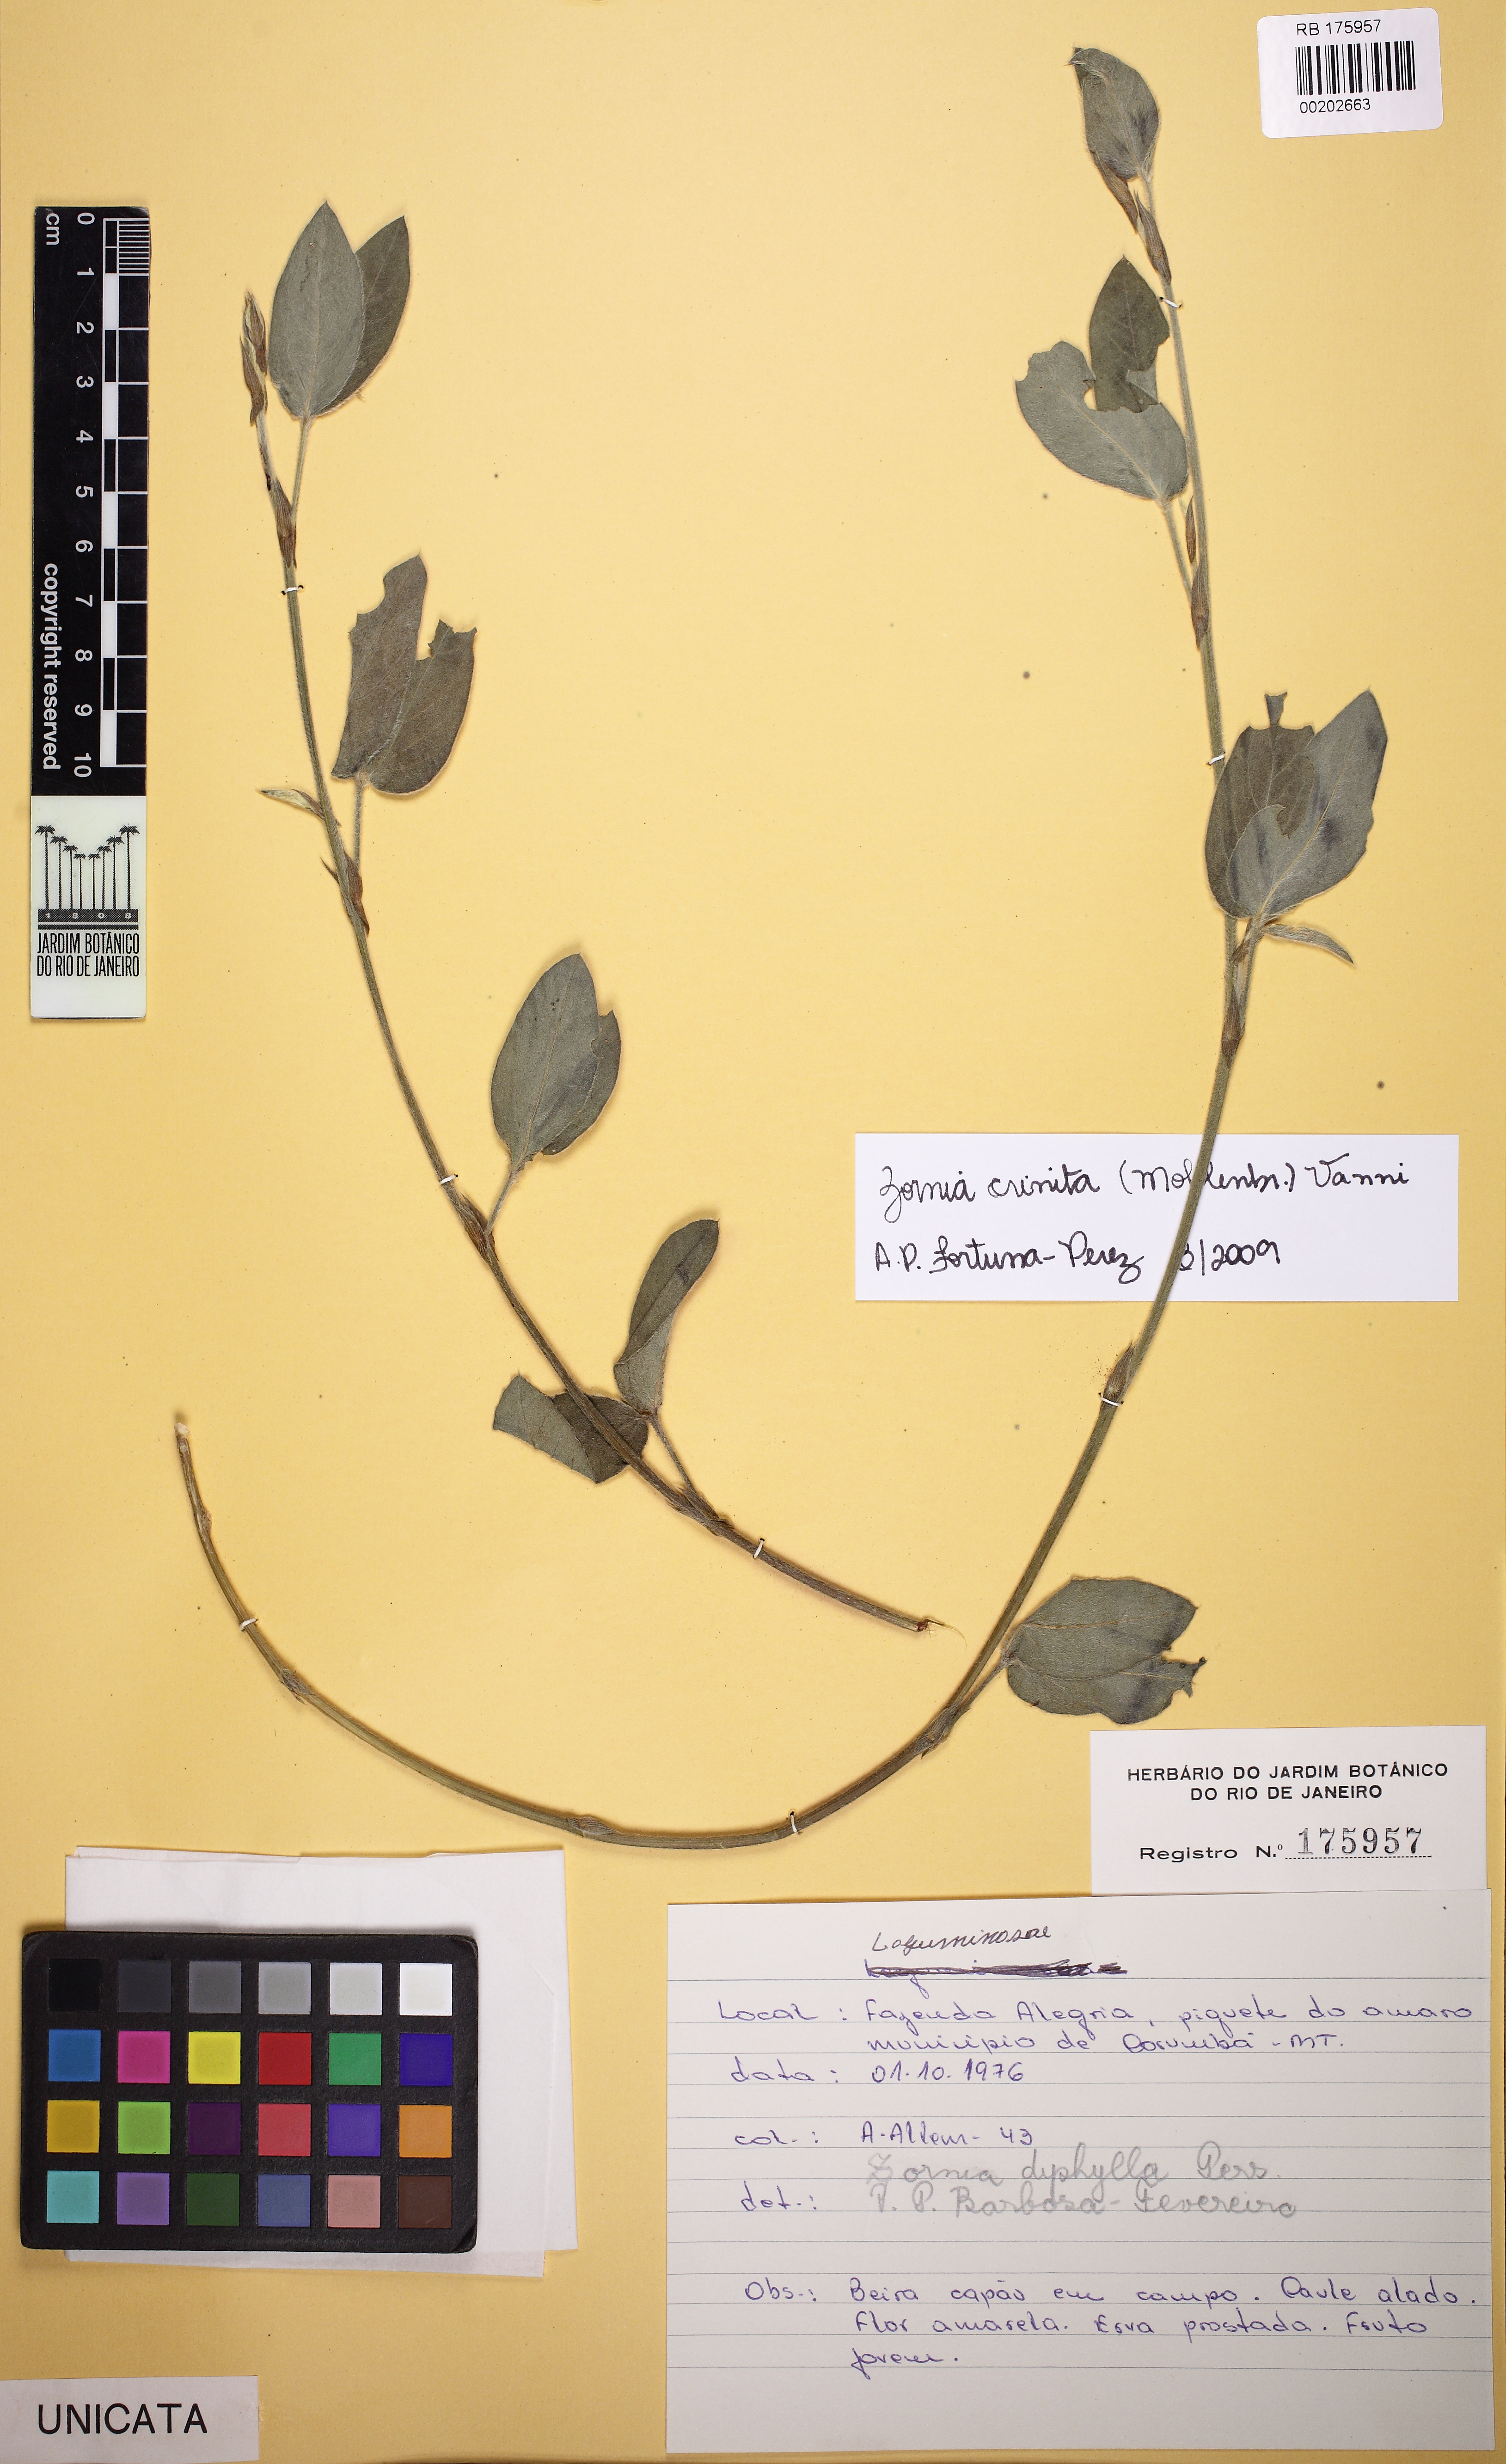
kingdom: Plantae
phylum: Tracheophyta
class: Magnoliopsida
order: Fabales
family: Fabaceae
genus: Zornia
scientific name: Zornia pardina
